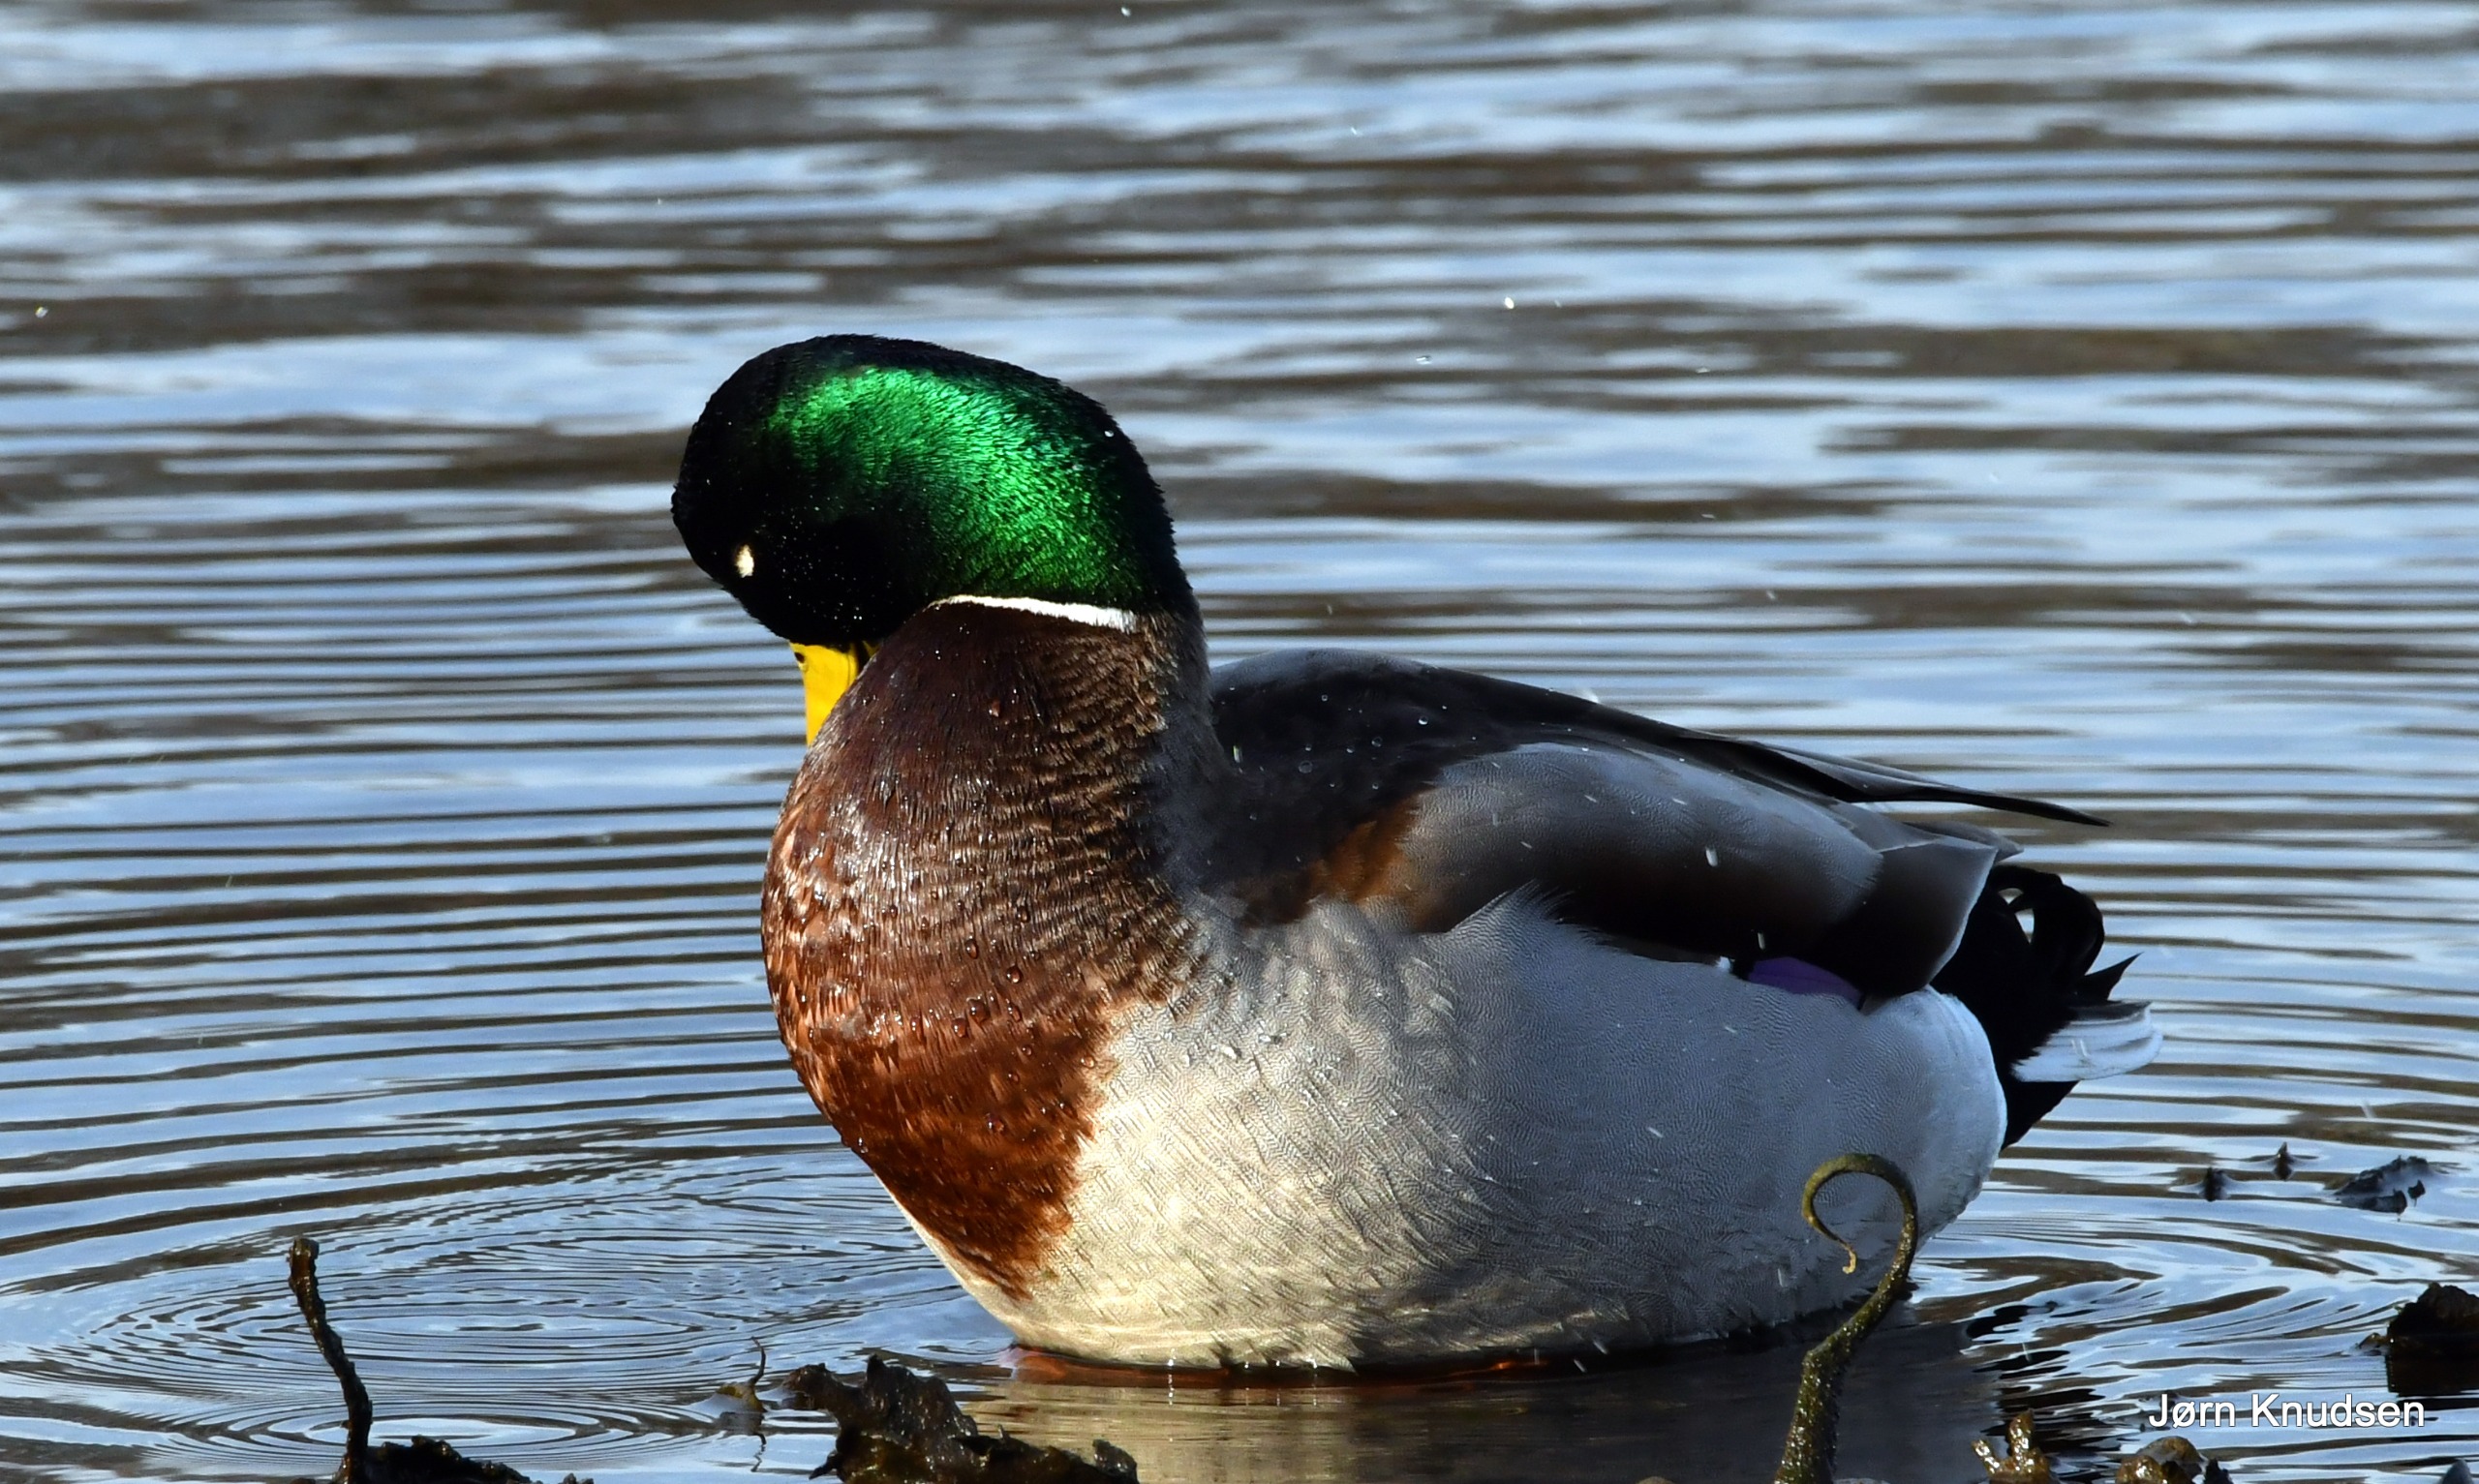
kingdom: Animalia
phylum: Chordata
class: Aves
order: Anseriformes
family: Anatidae
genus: Anas
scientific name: Anas platyrhynchos
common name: Gråand
